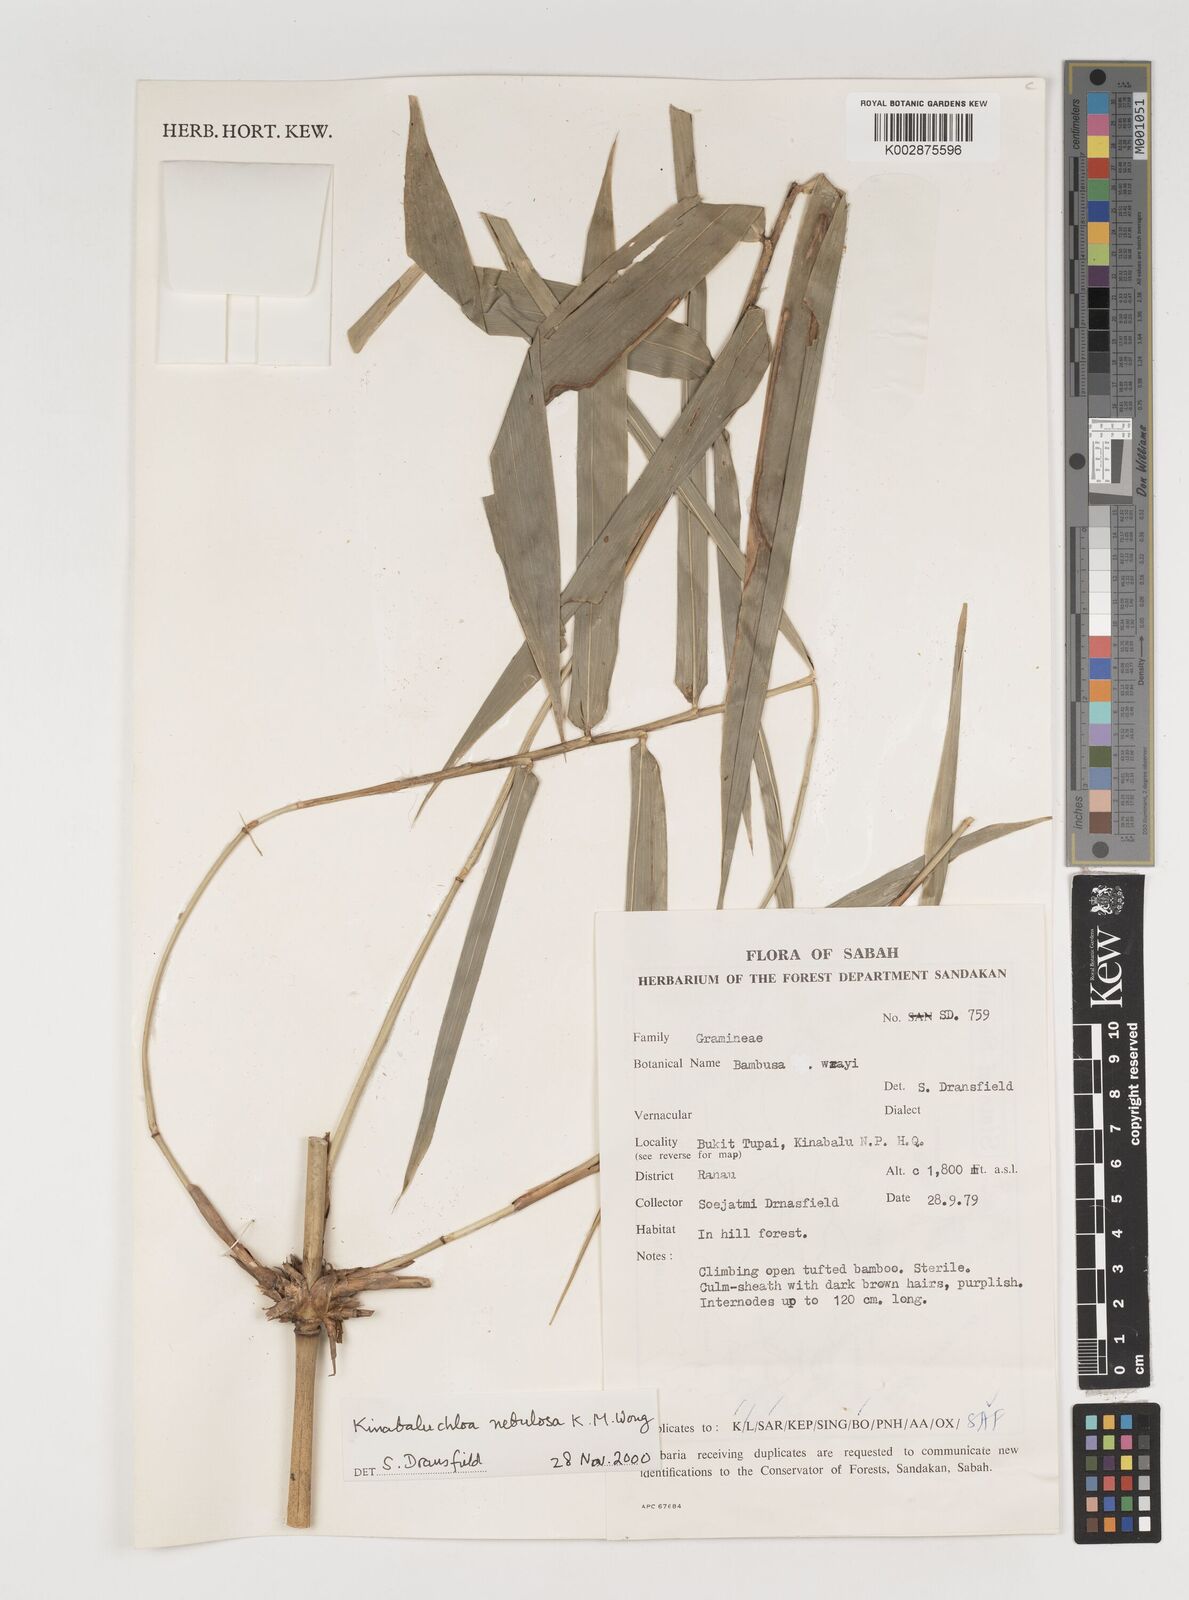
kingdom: Plantae
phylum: Tracheophyta
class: Liliopsida
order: Poales
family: Poaceae
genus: Kinabaluchloa
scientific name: Kinabaluchloa nebulosa
